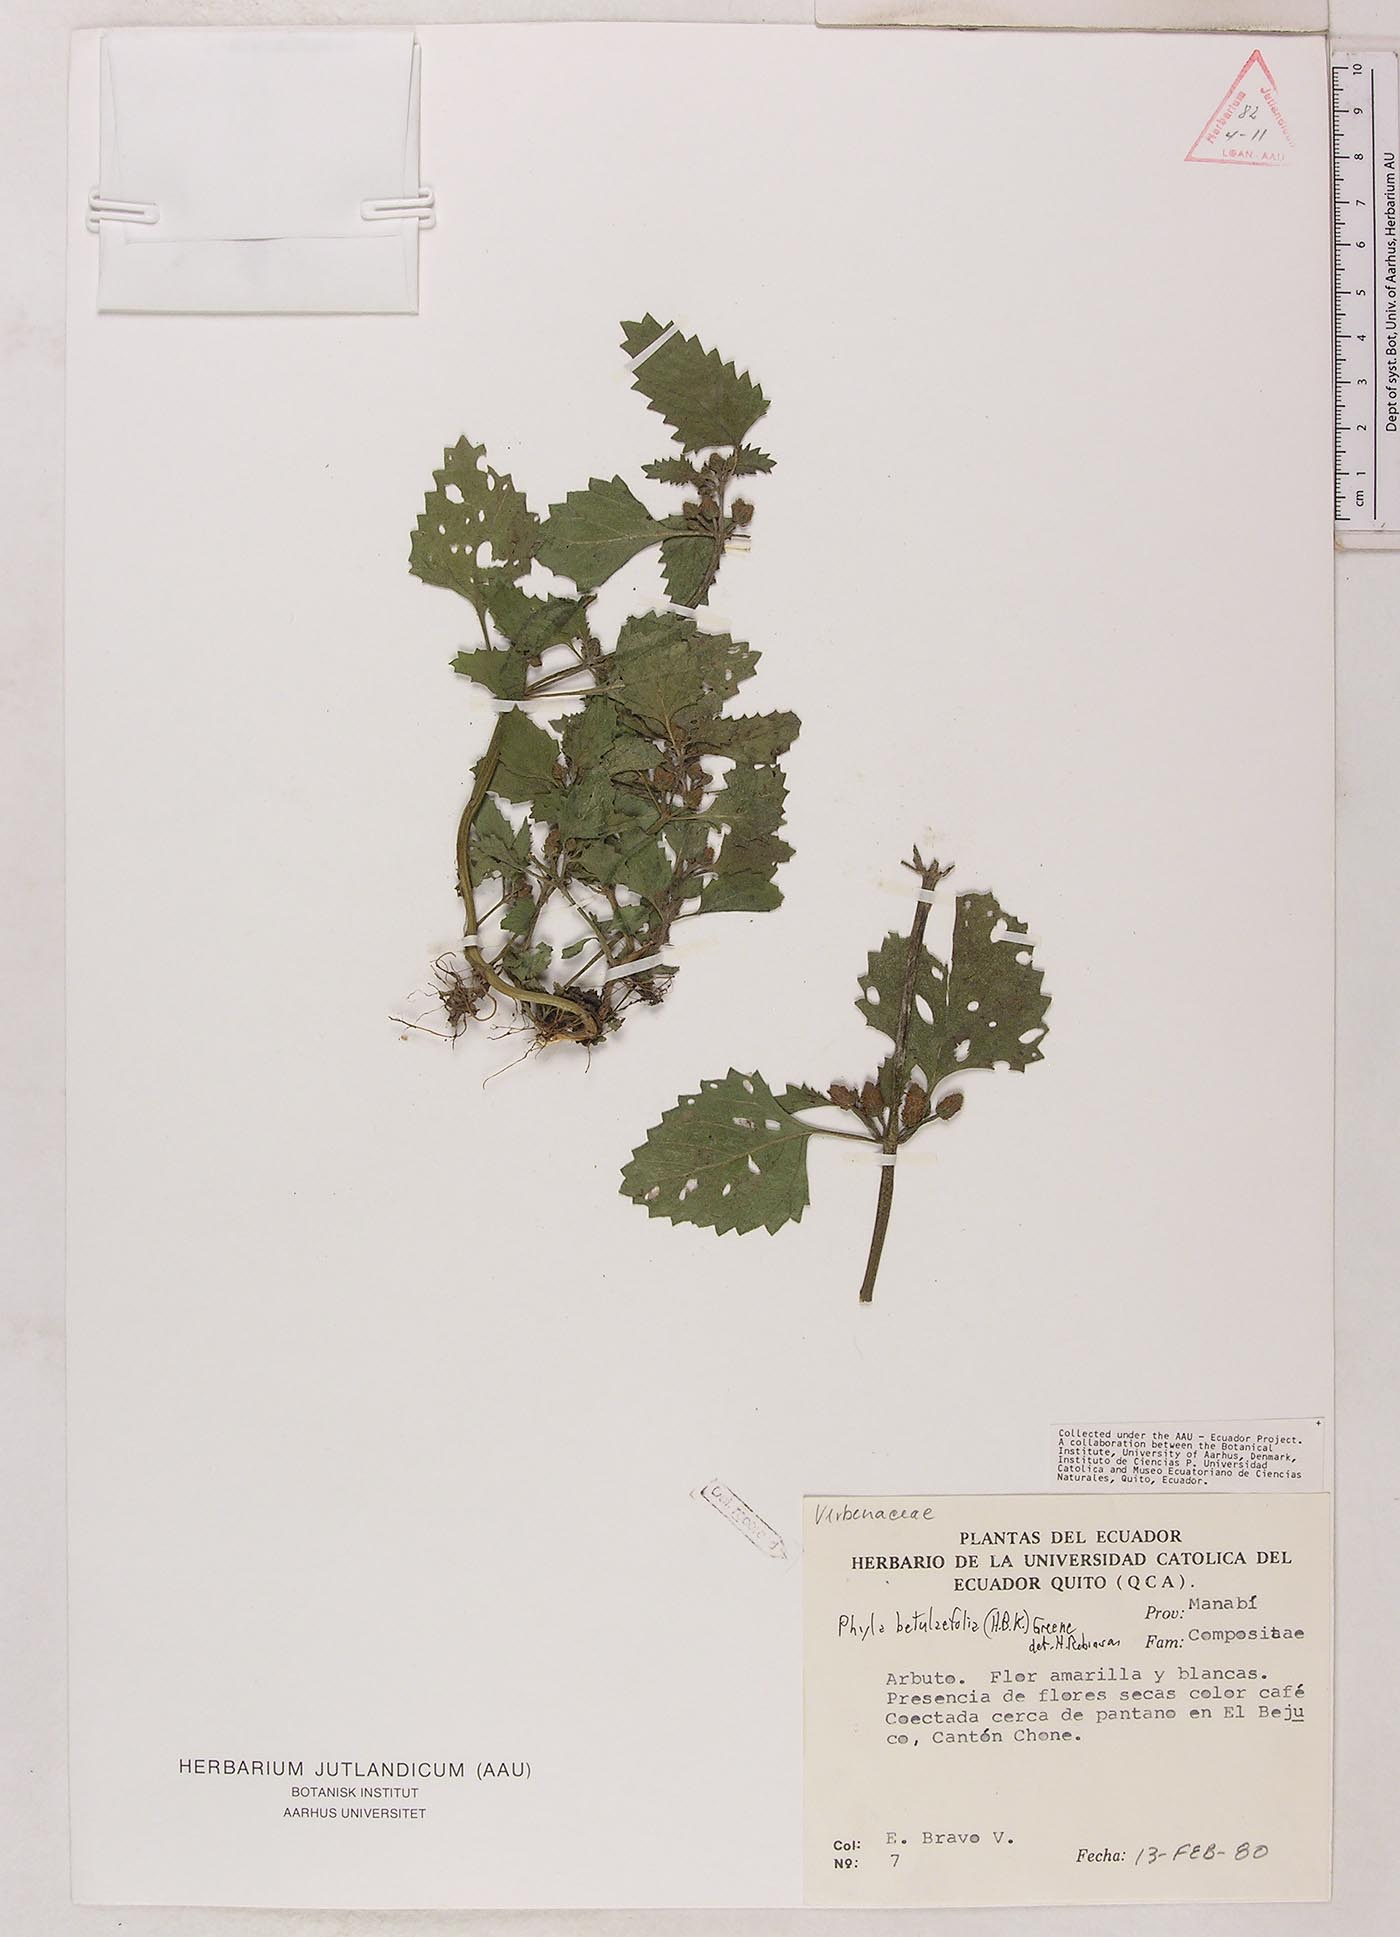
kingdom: Plantae
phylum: Tracheophyta
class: Magnoliopsida
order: Lamiales
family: Verbenaceae
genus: Phyla
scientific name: Phyla betulifolia
